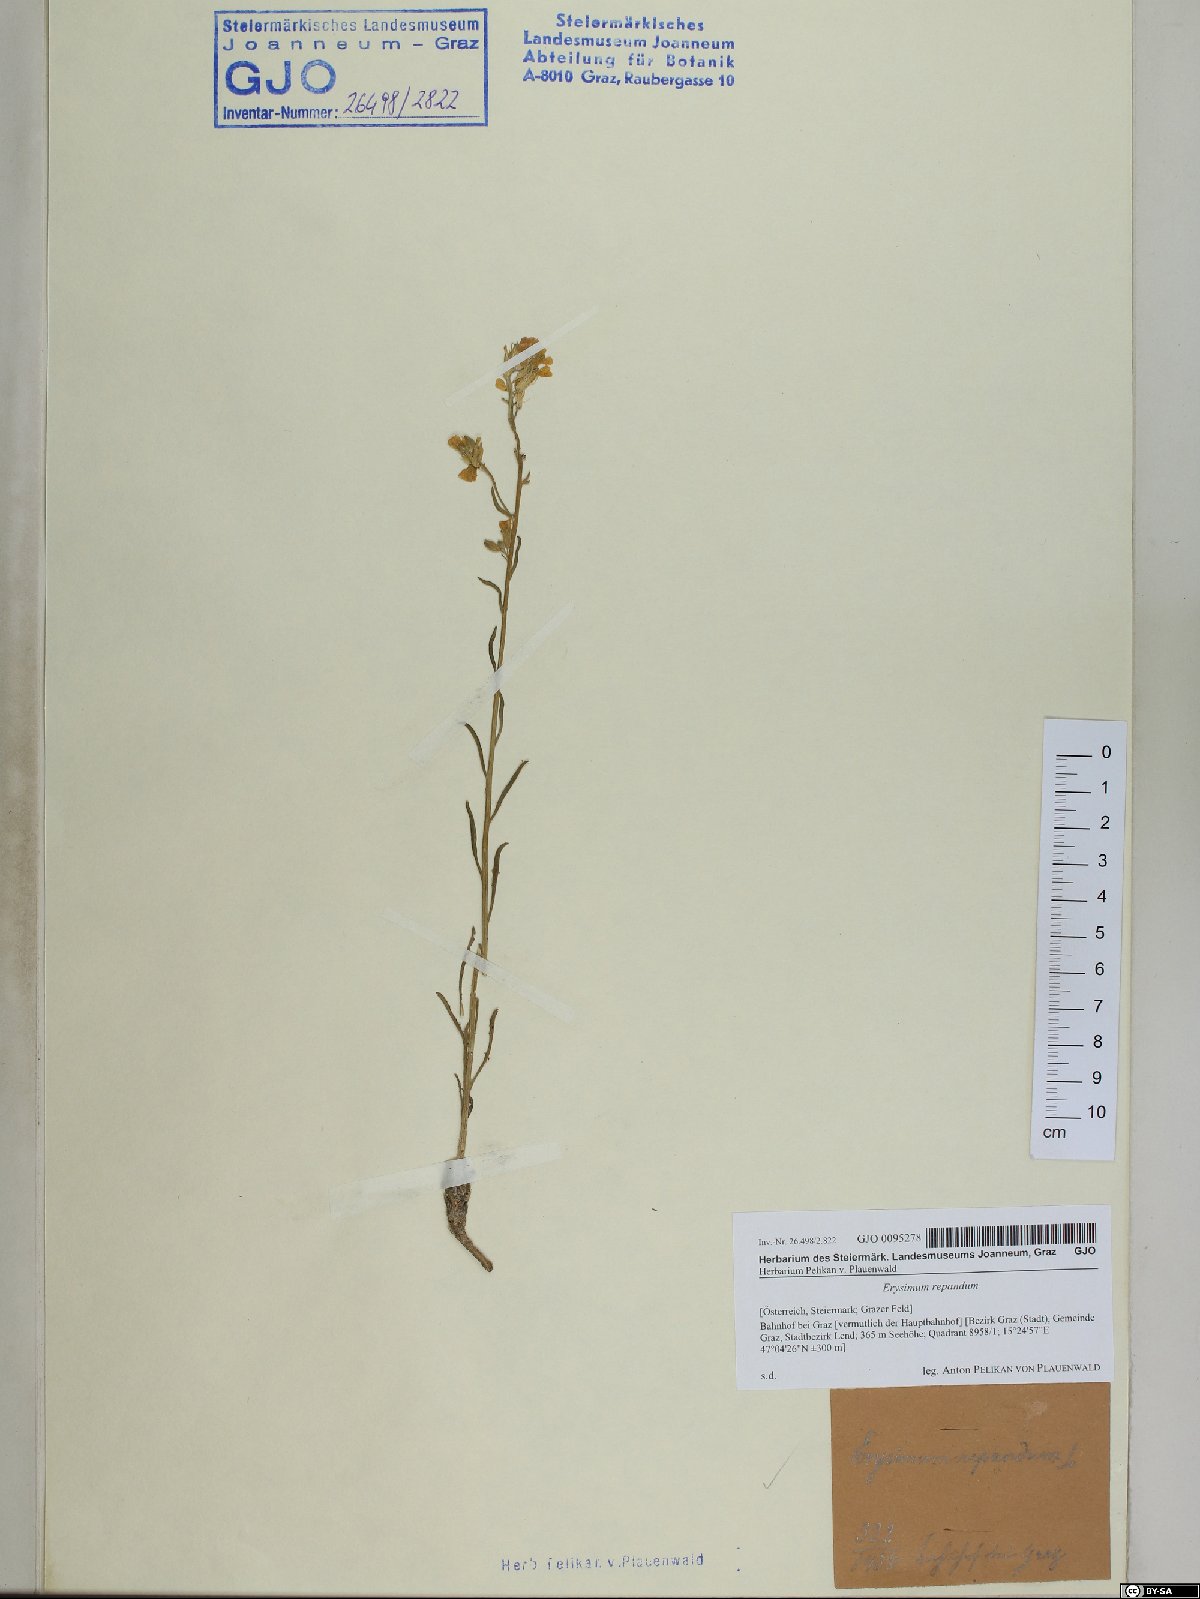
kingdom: Plantae
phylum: Tracheophyta
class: Magnoliopsida
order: Brassicales
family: Brassicaceae
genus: Erysimum
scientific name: Erysimum repandum
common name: Spreading wallflower
